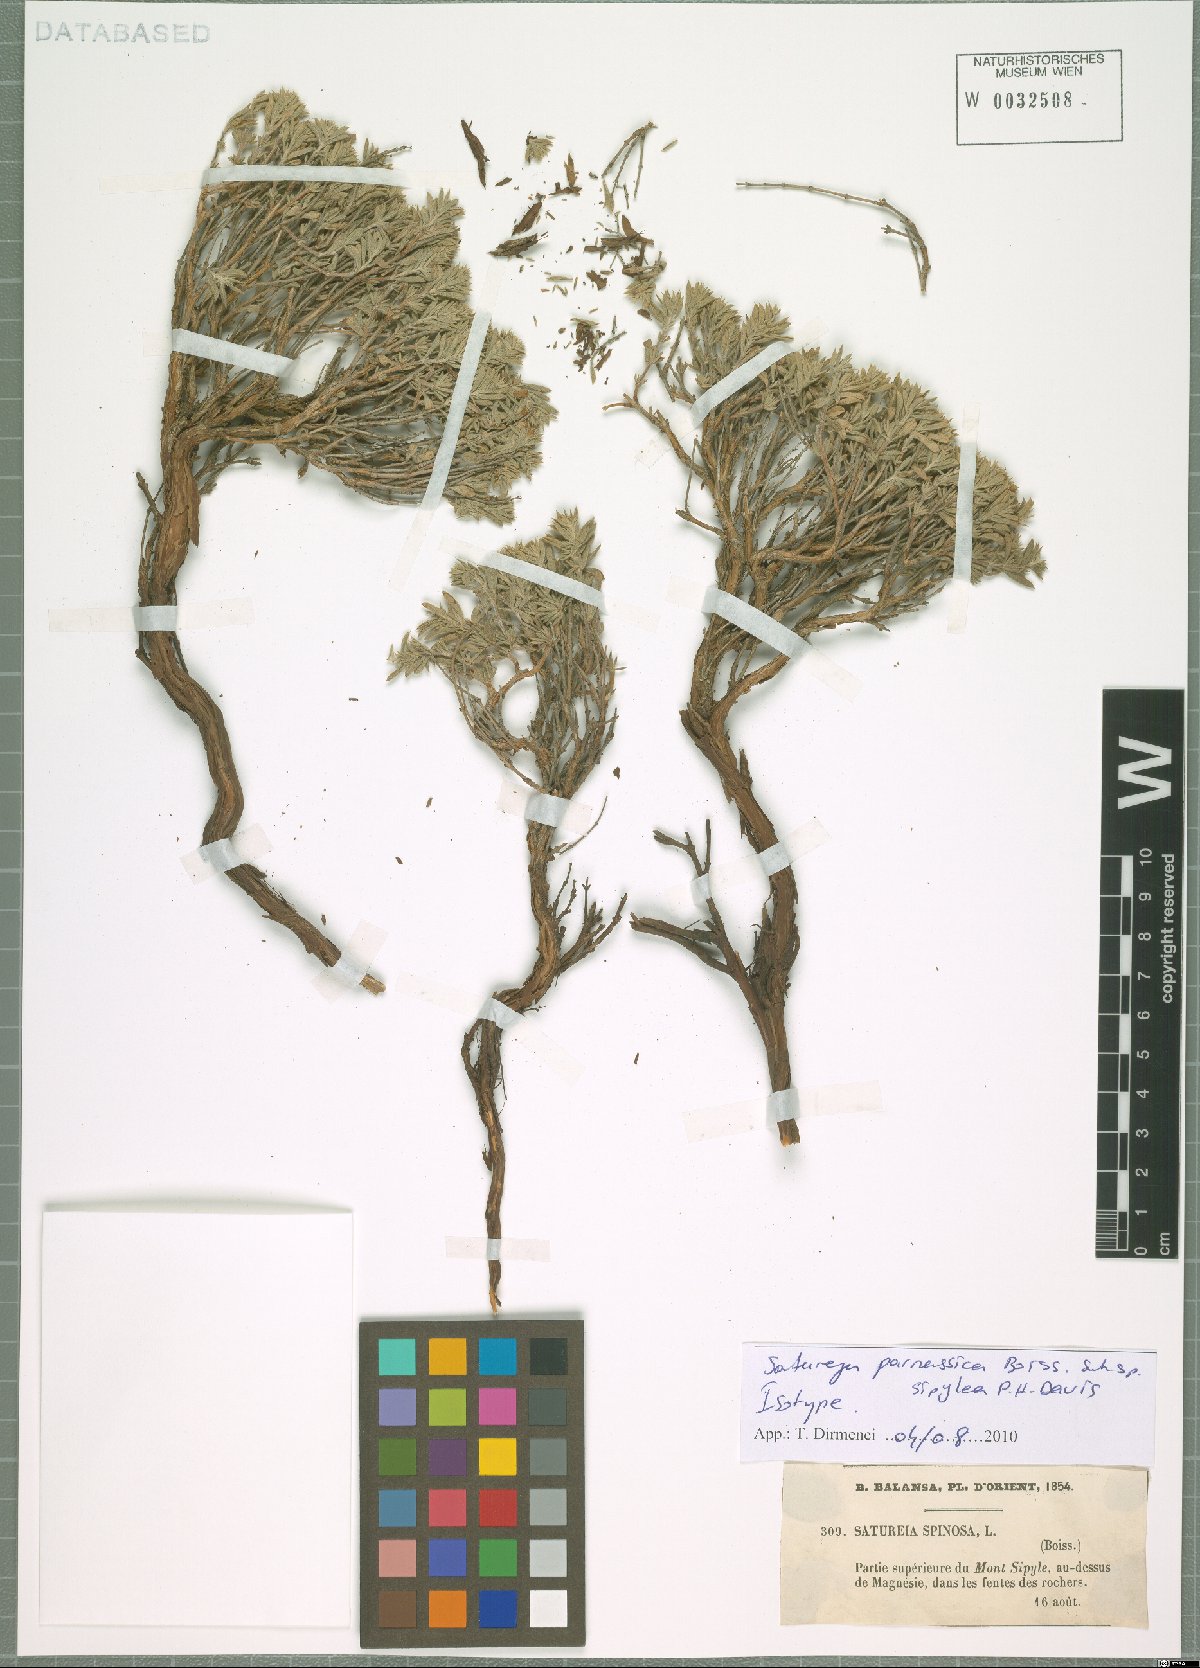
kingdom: Plantae
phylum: Tracheophyta
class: Magnoliopsida
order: Lamiales
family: Lamiaceae
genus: Satureja
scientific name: Satureja parnassica
